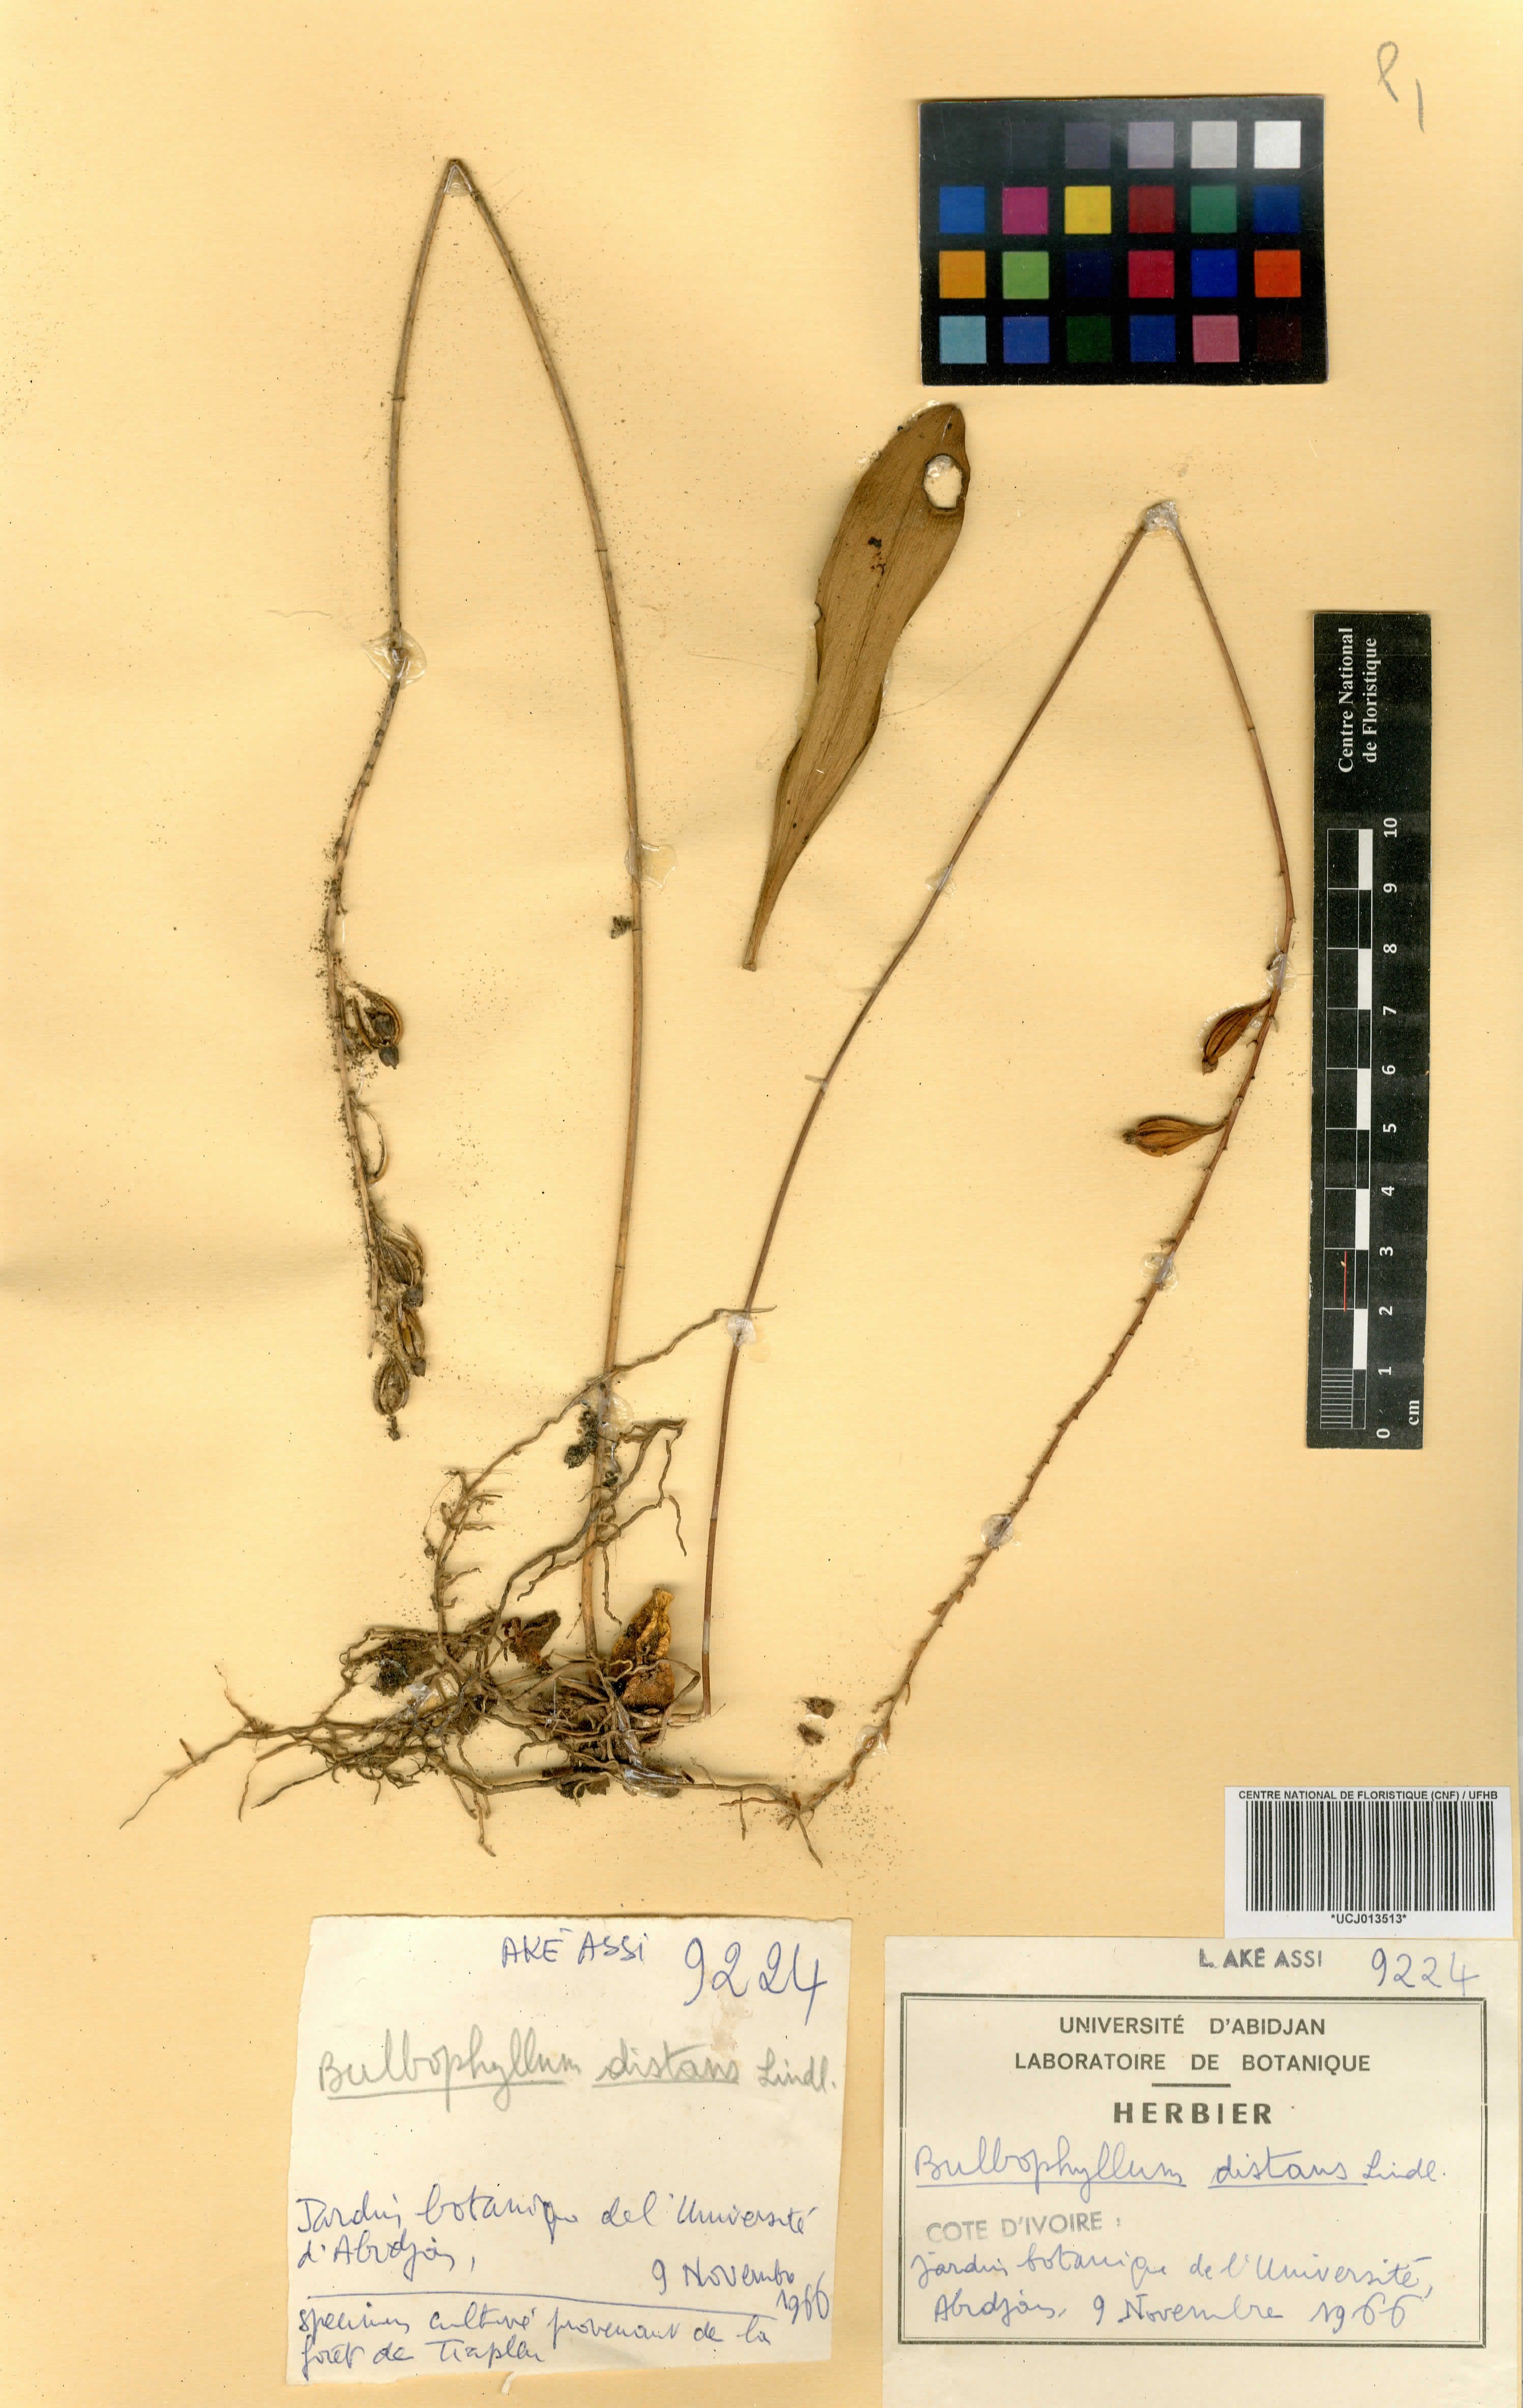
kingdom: Plantae
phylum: Tracheophyta
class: Liliopsida
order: Asparagales
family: Orchidaceae
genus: Bulbophyllum
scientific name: Bulbophyllum saltatorium
